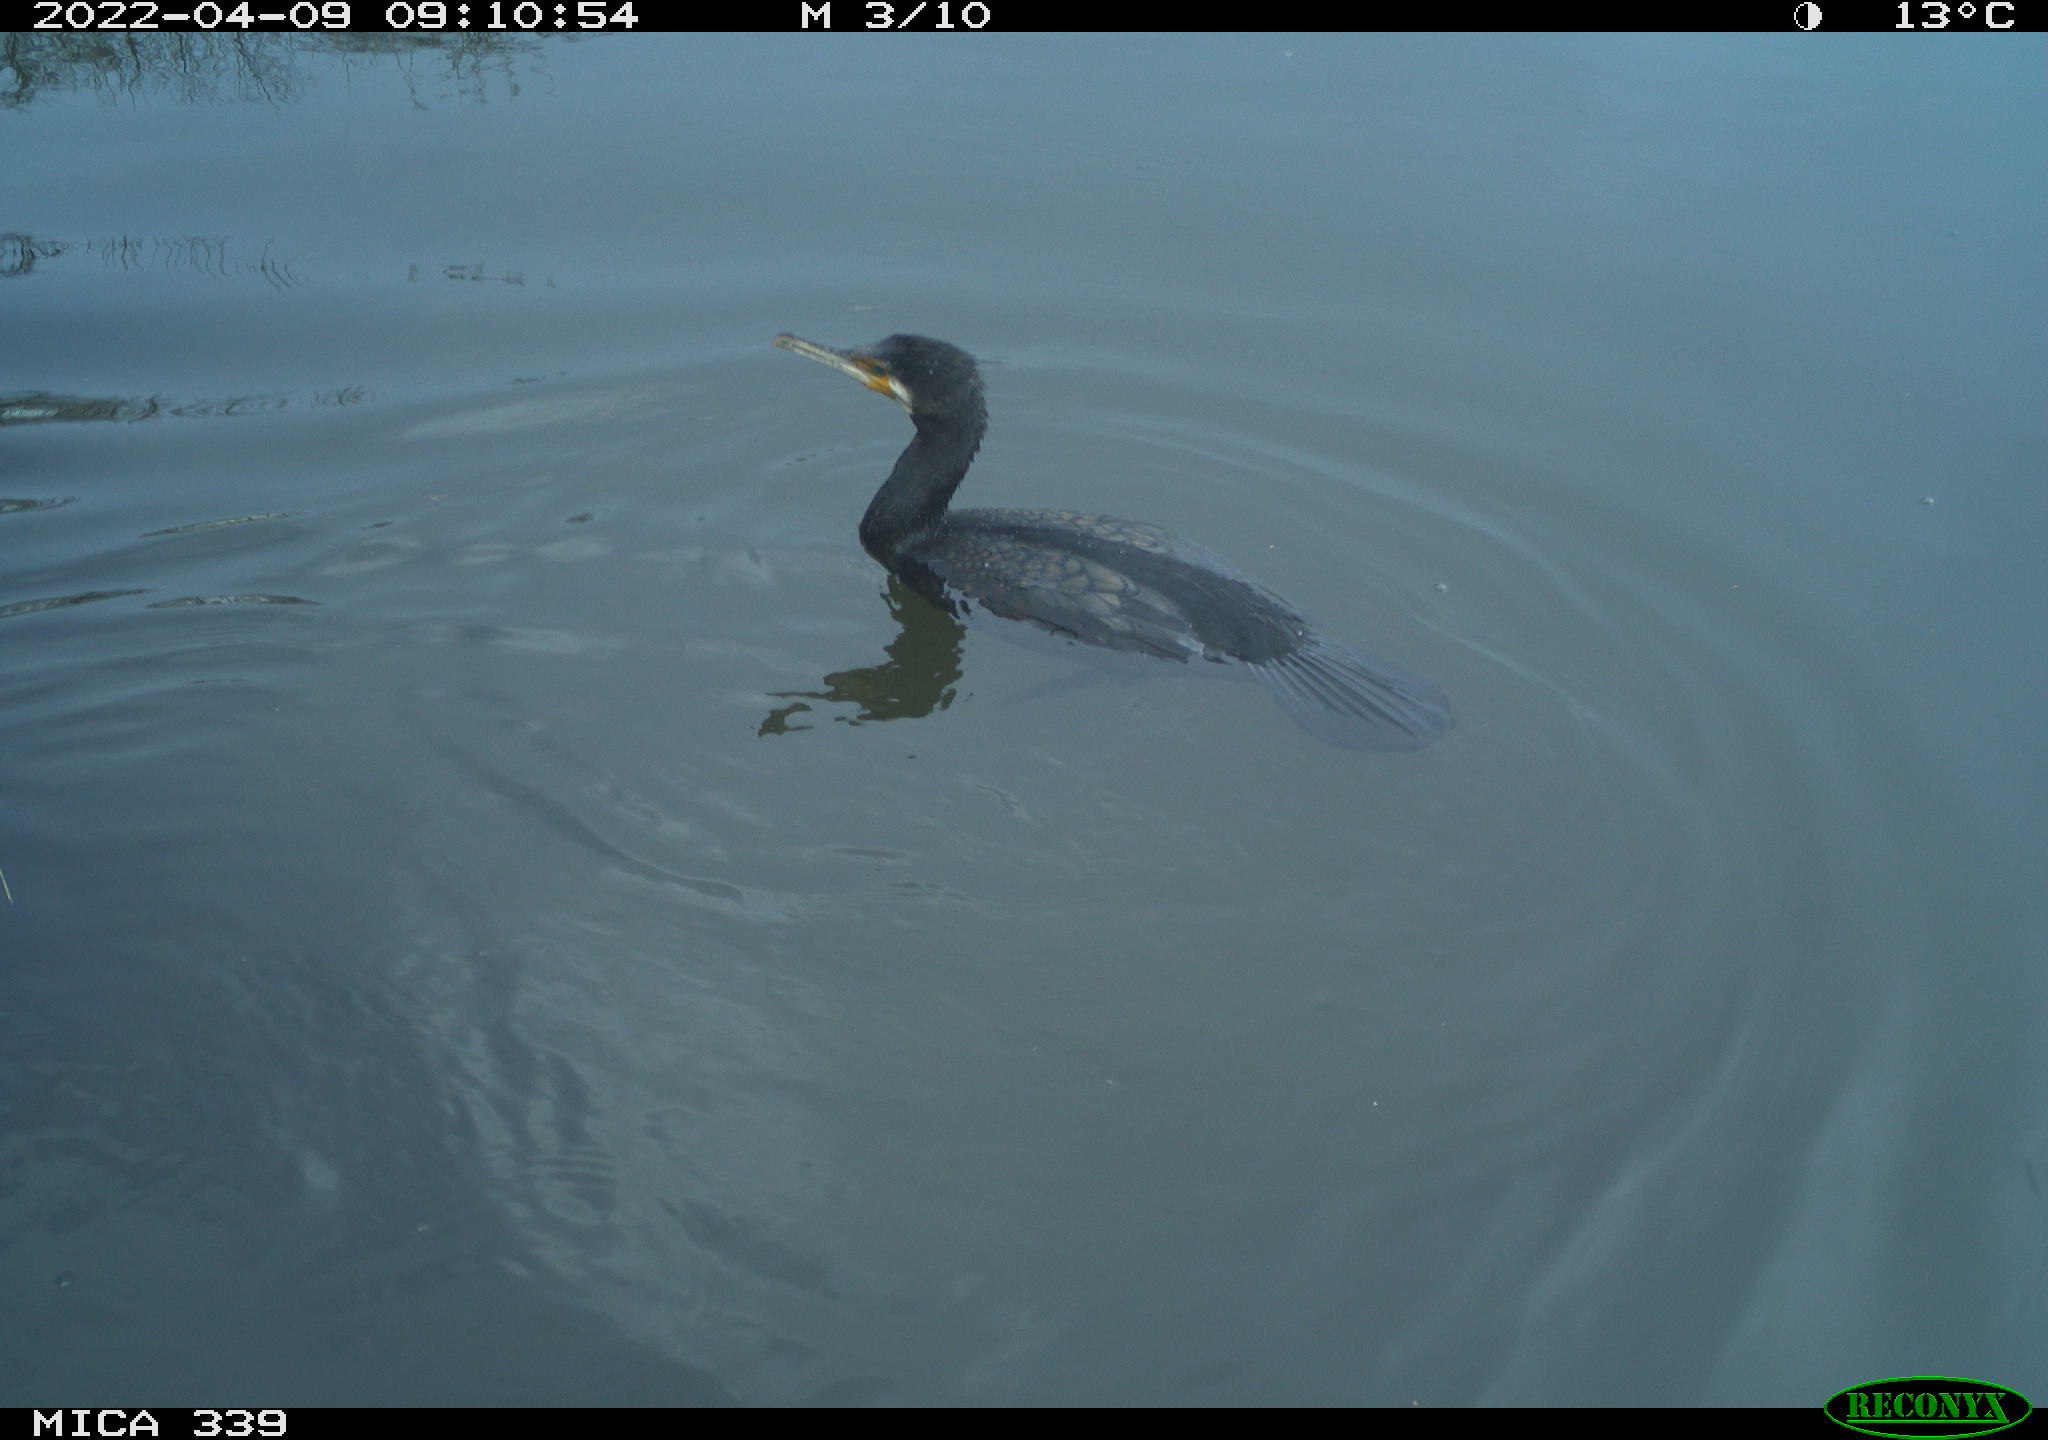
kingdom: Animalia
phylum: Chordata
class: Aves
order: Suliformes
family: Phalacrocoracidae
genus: Phalacrocorax
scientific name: Phalacrocorax carbo
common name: Great cormorant
